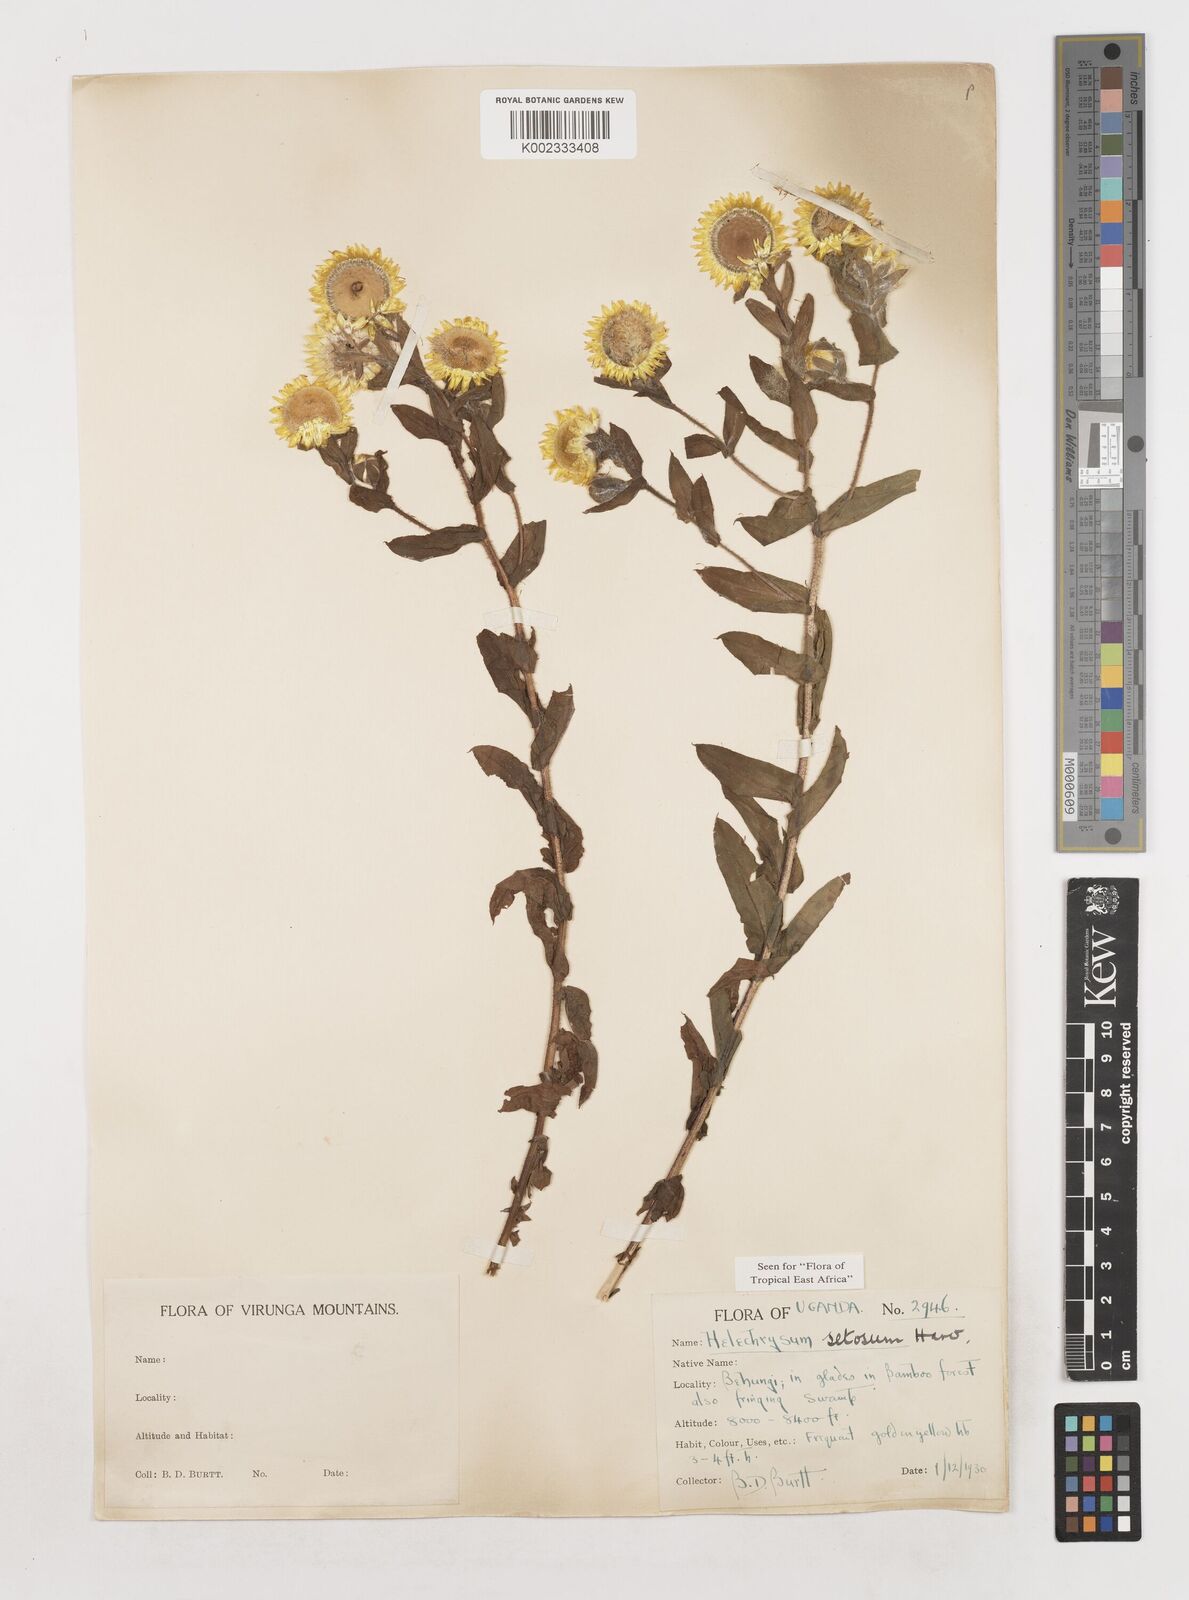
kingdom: Plantae
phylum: Tracheophyta
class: Magnoliopsida
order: Asterales
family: Asteraceae
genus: Helichrysum
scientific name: Helichrysum setosum
